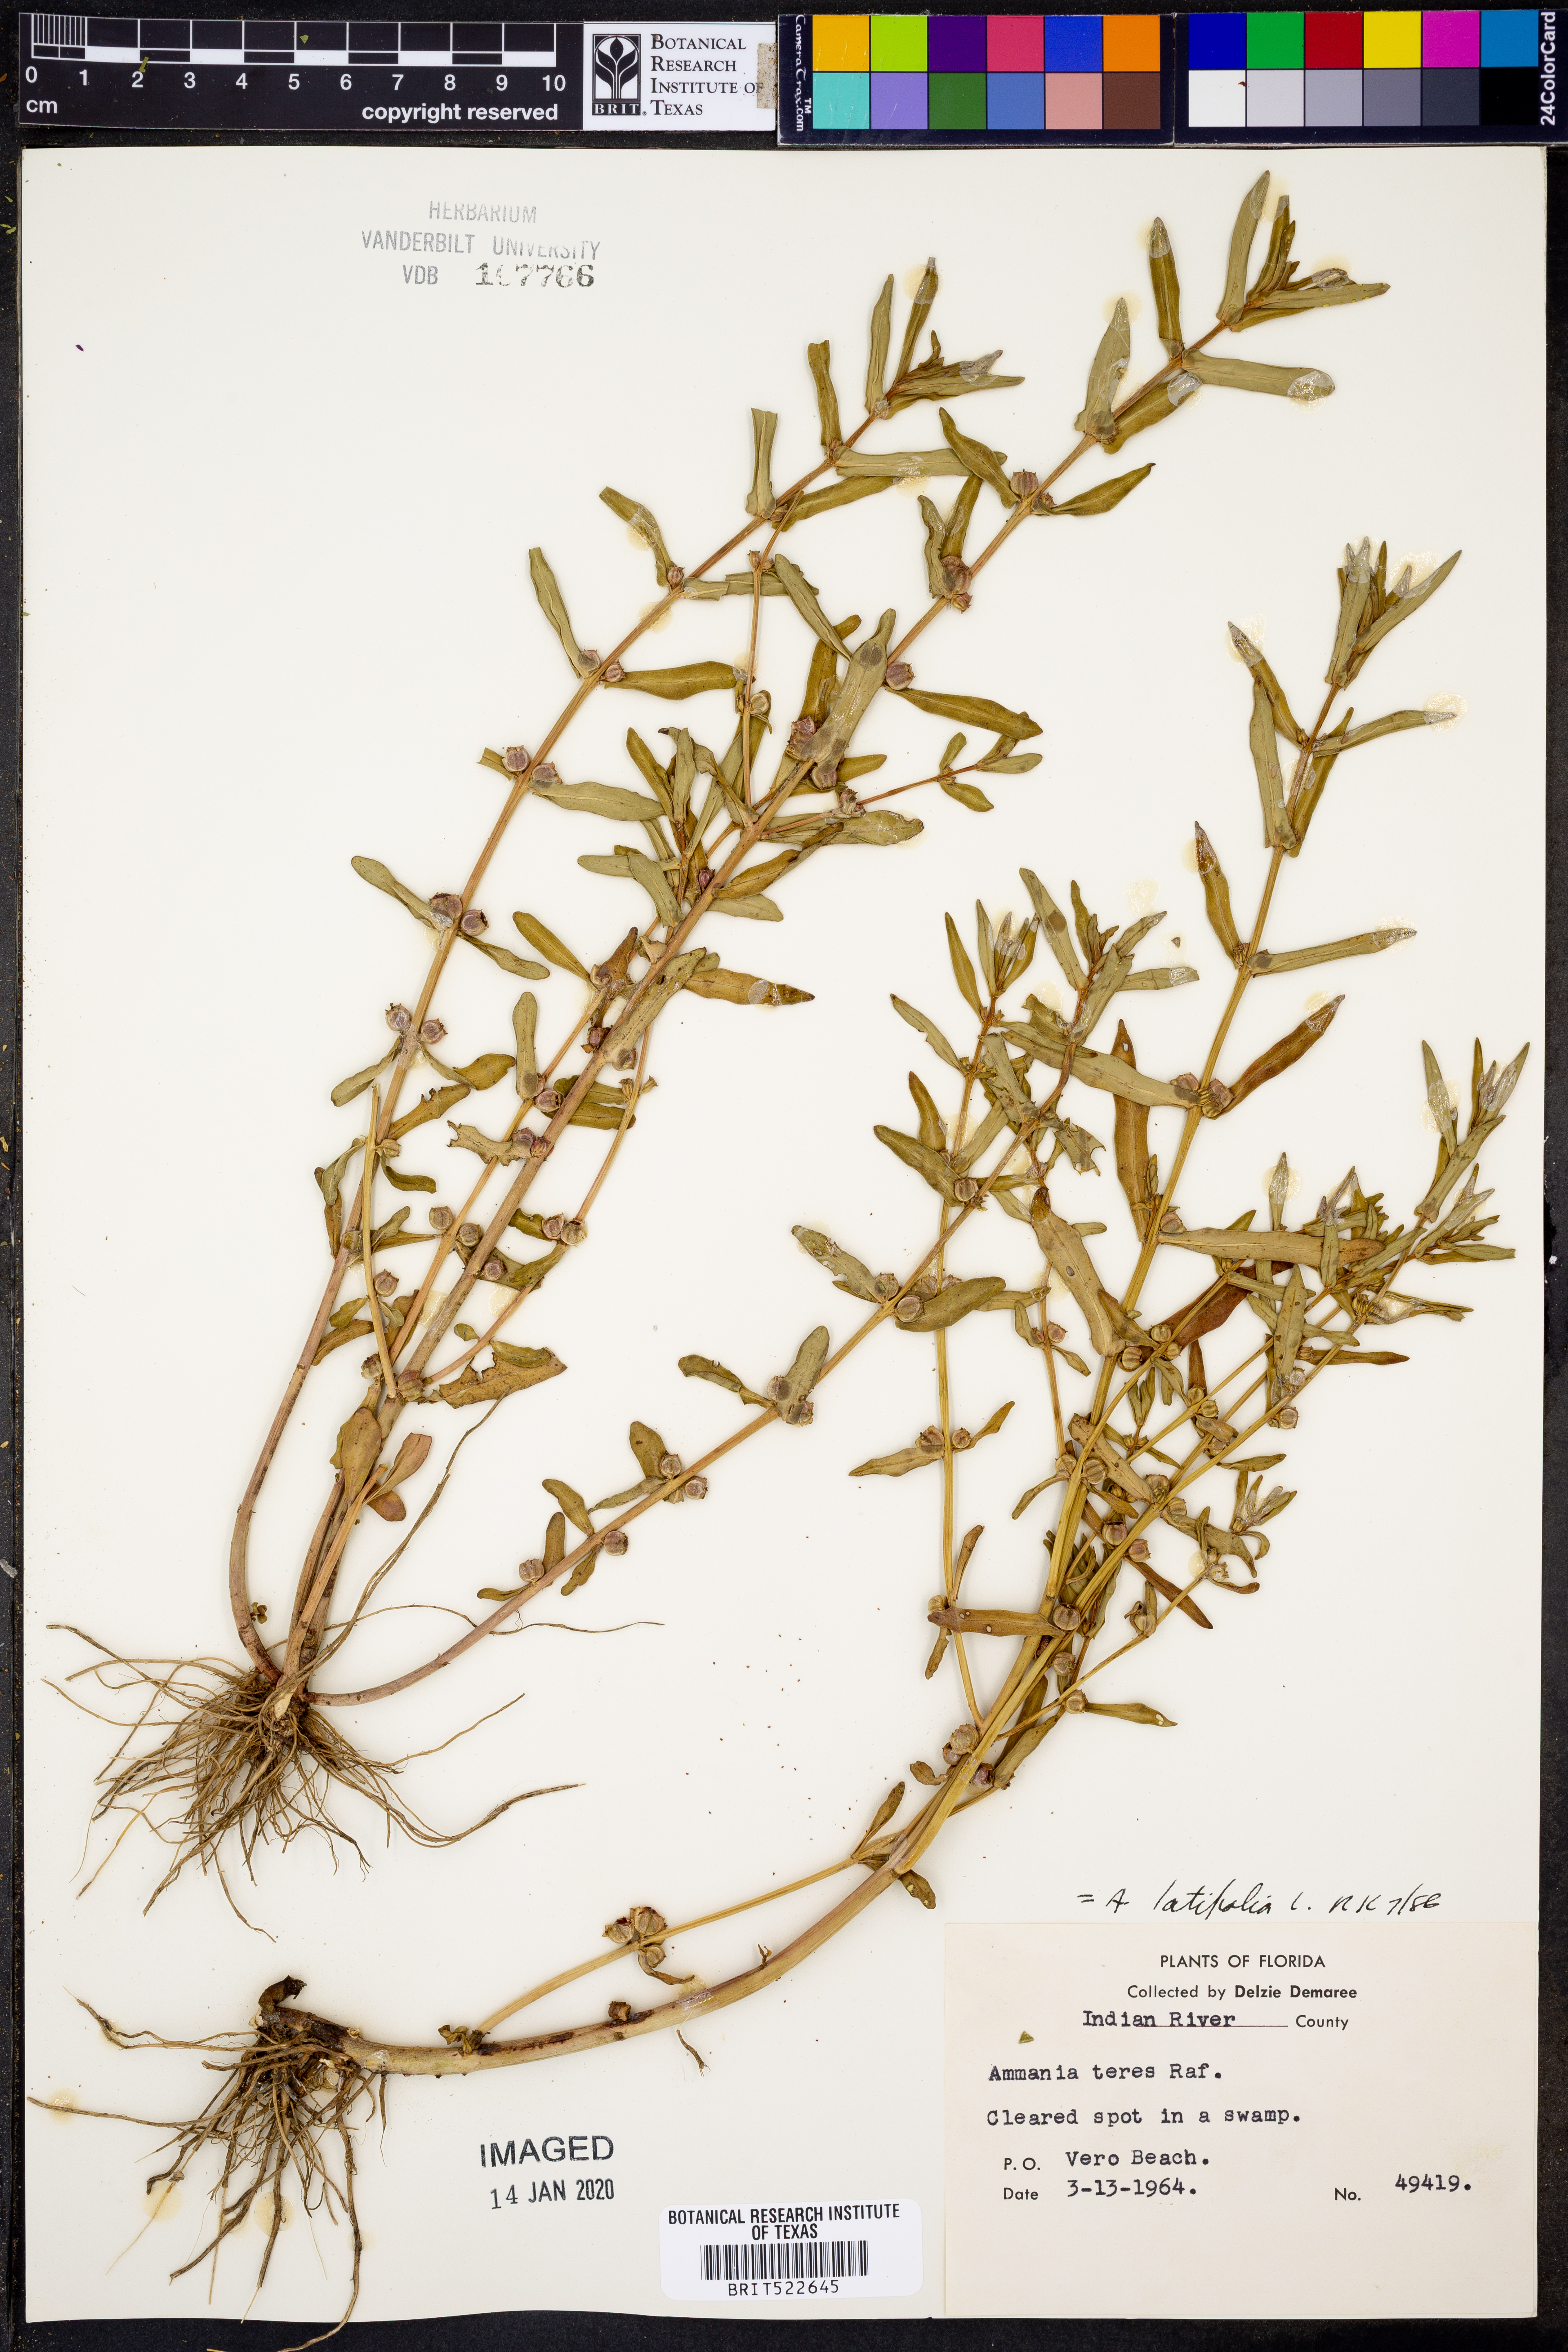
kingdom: Plantae
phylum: Tracheophyta
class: Magnoliopsida
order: Myrtales
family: Lythraceae
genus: Ammannia
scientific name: Ammannia latifolia
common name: Toothcup
